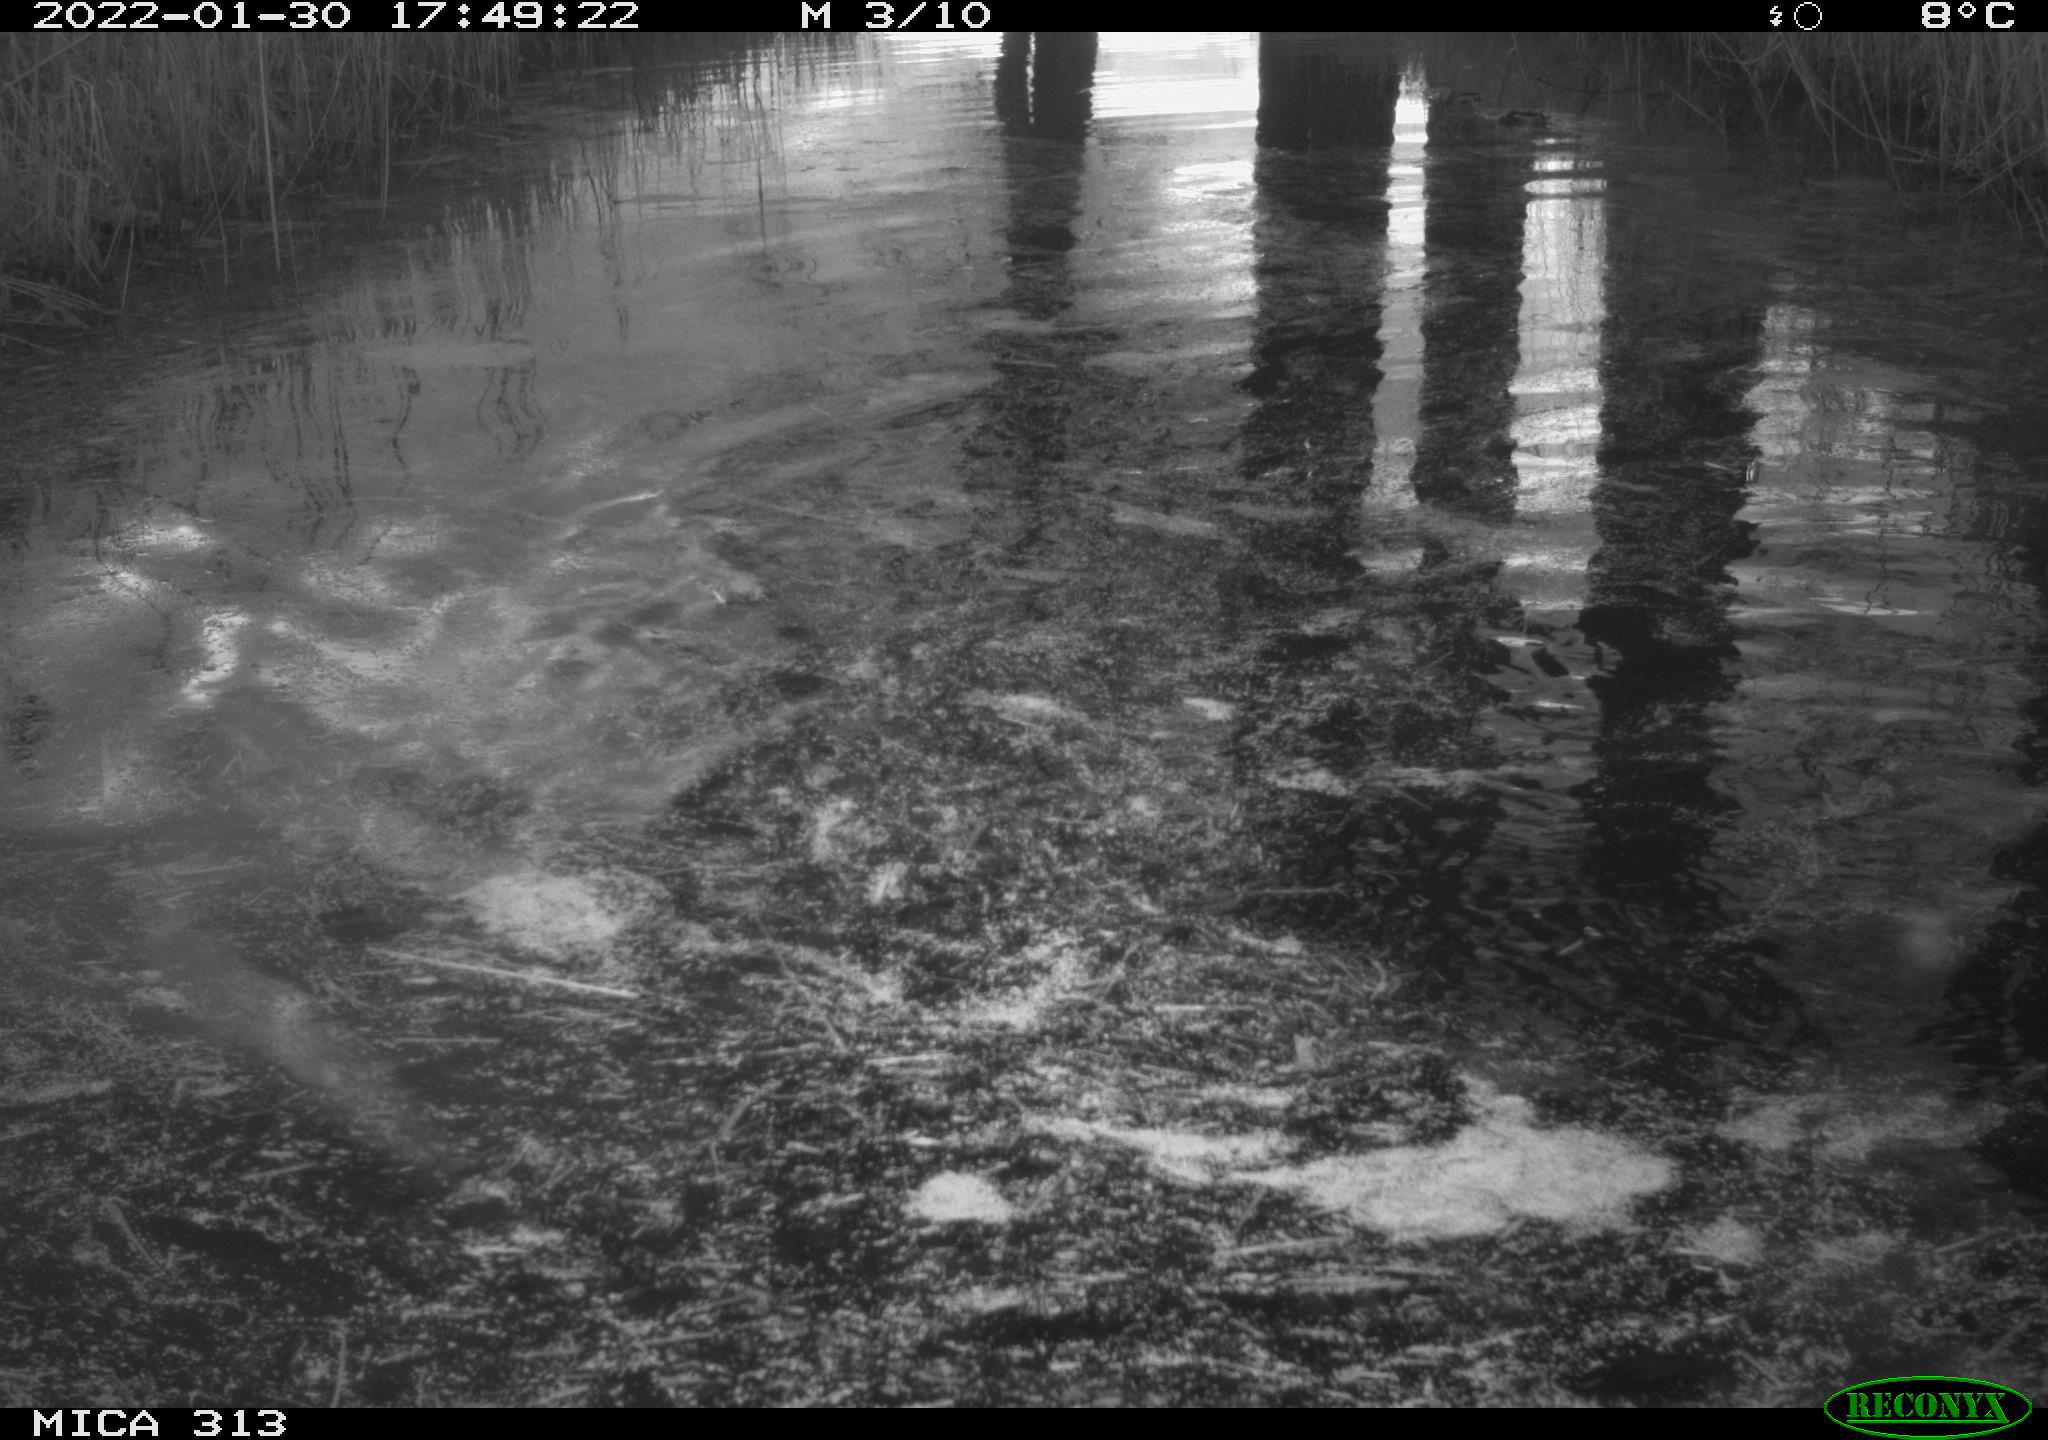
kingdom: Animalia
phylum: Chordata
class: Aves
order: Gruiformes
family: Rallidae
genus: Gallinula
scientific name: Gallinula chloropus
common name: Common moorhen
